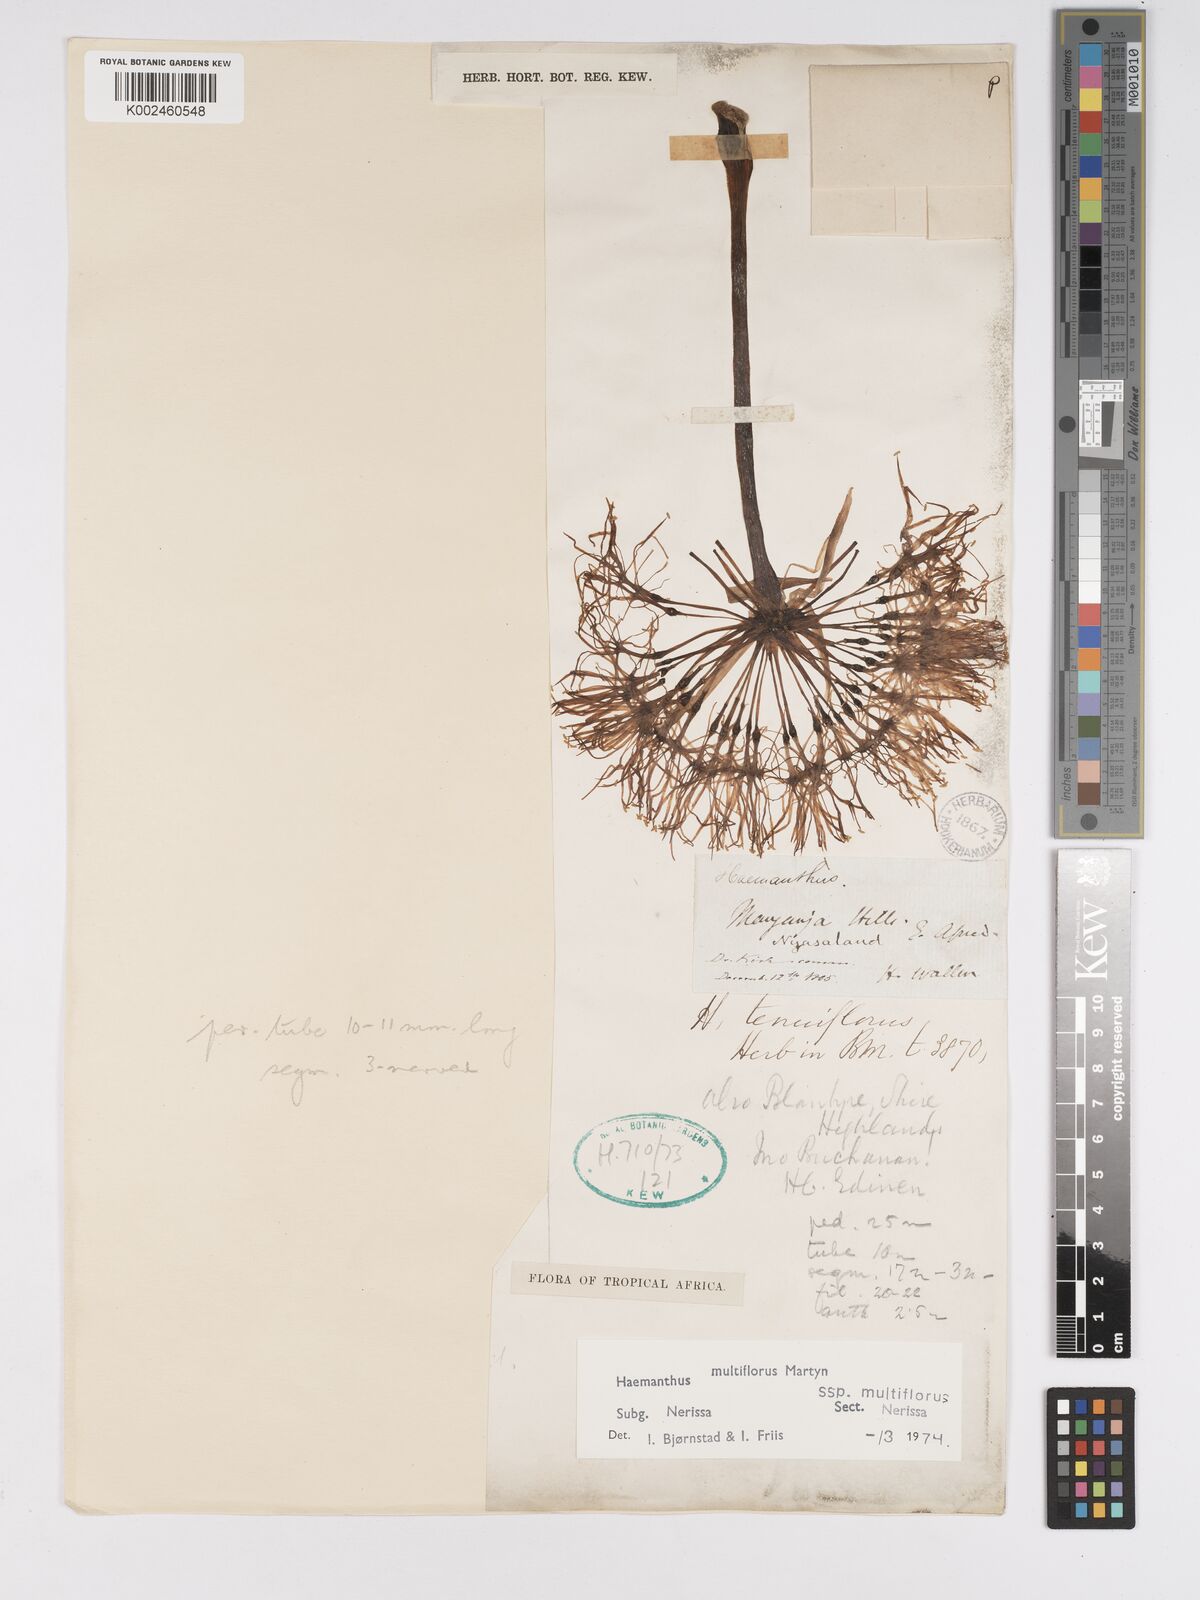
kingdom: Plantae
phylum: Tracheophyta
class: Liliopsida
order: Asparagales
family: Amaryllidaceae
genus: Scadoxus
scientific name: Scadoxus multiflorus
